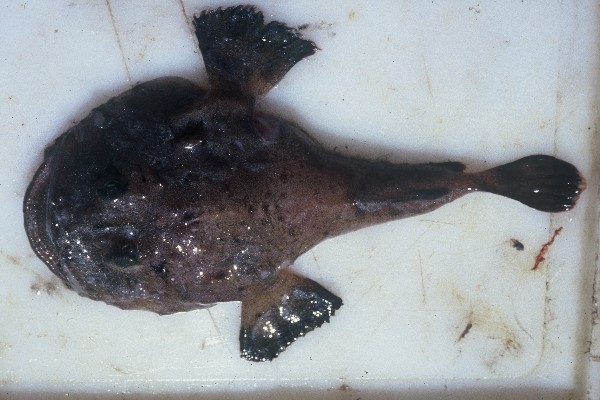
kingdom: Animalia
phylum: Chordata
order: Lophiiformes
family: Lophiidae
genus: Lophius
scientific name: Lophius vomerinus
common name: Devil anglerfish
